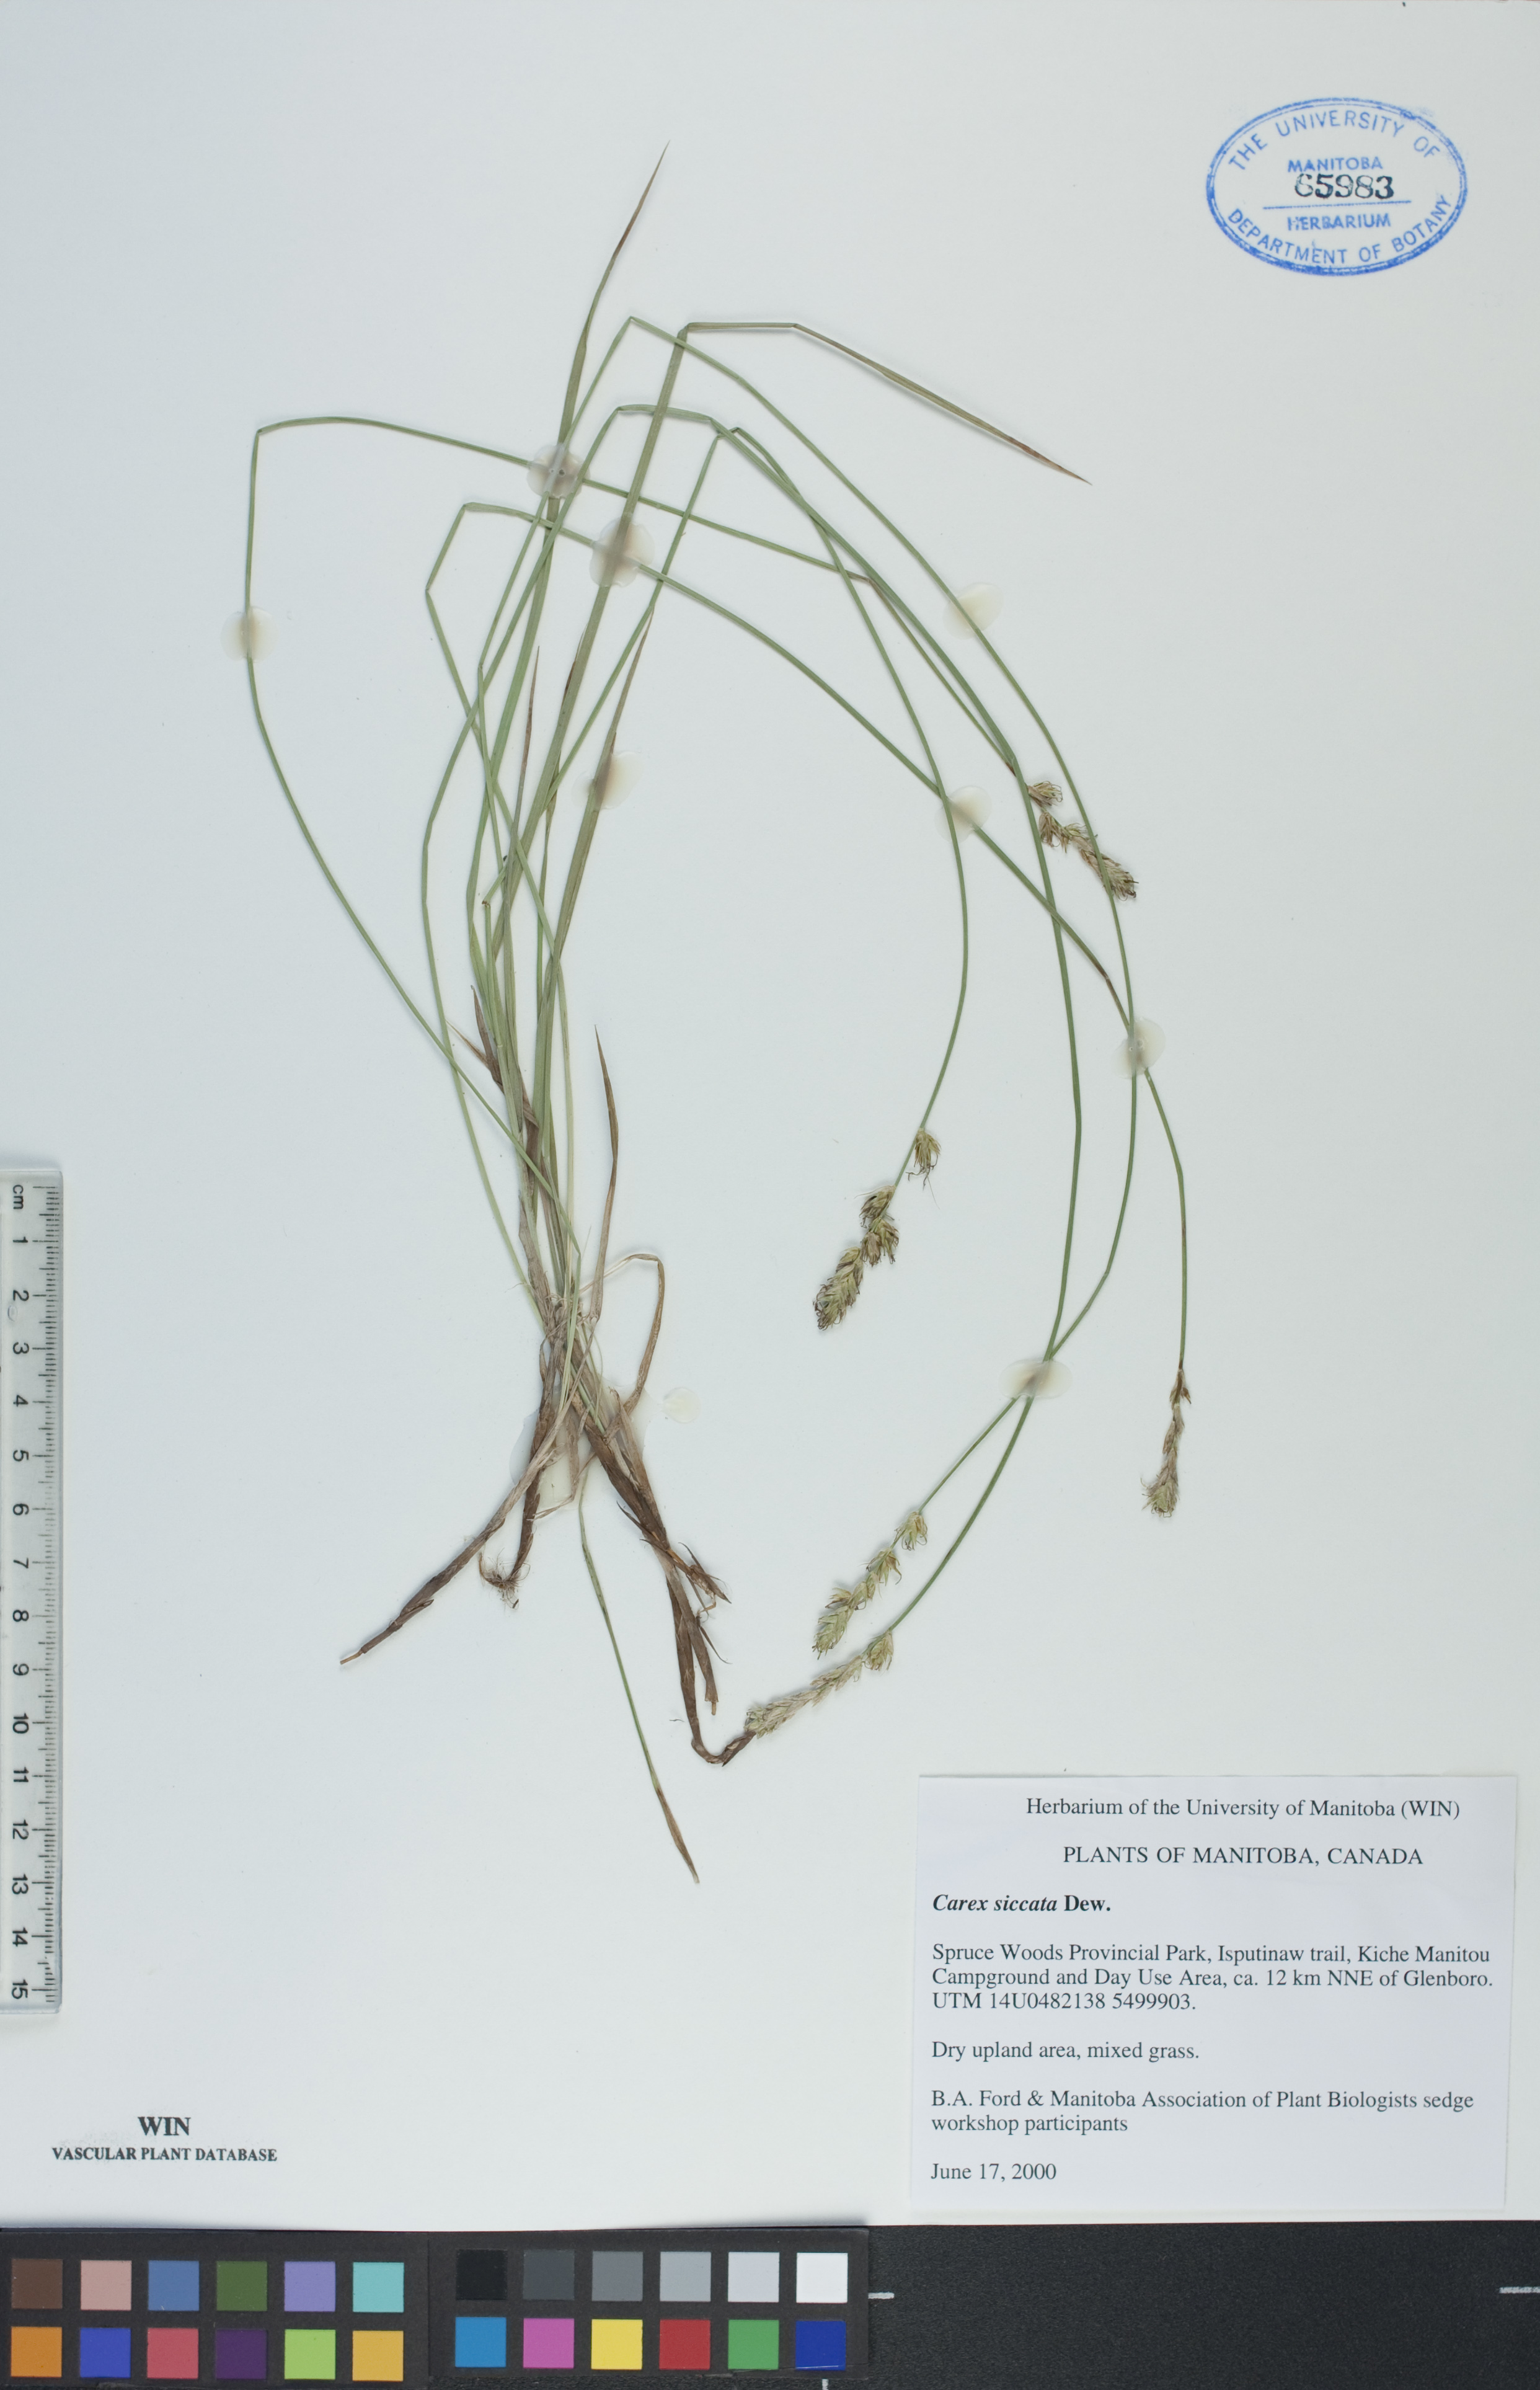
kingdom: Plantae
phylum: Tracheophyta
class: Liliopsida
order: Poales
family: Cyperaceae
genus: Carex
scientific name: Carex siccata
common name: Dry sedge
